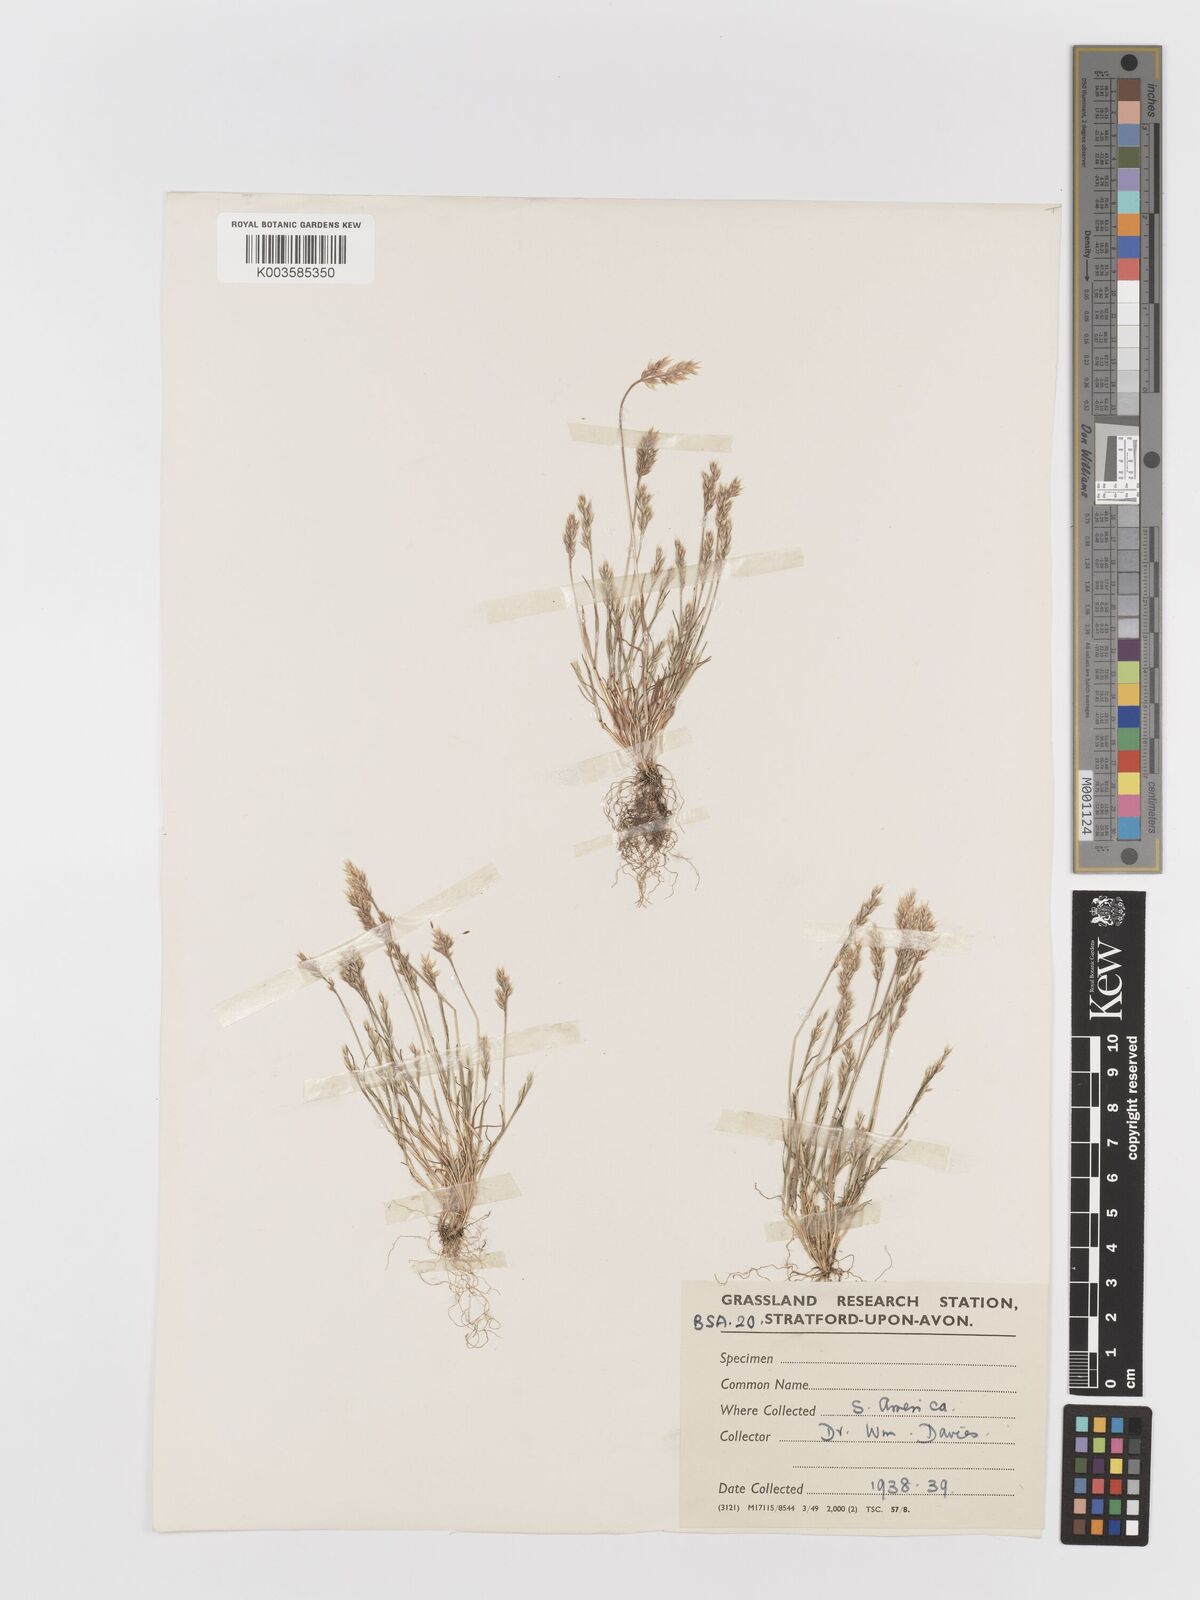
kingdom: Plantae
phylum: Tracheophyta
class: Liliopsida
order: Poales
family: Poaceae
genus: Aira
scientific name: Aira praecox
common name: Early hair-grass
